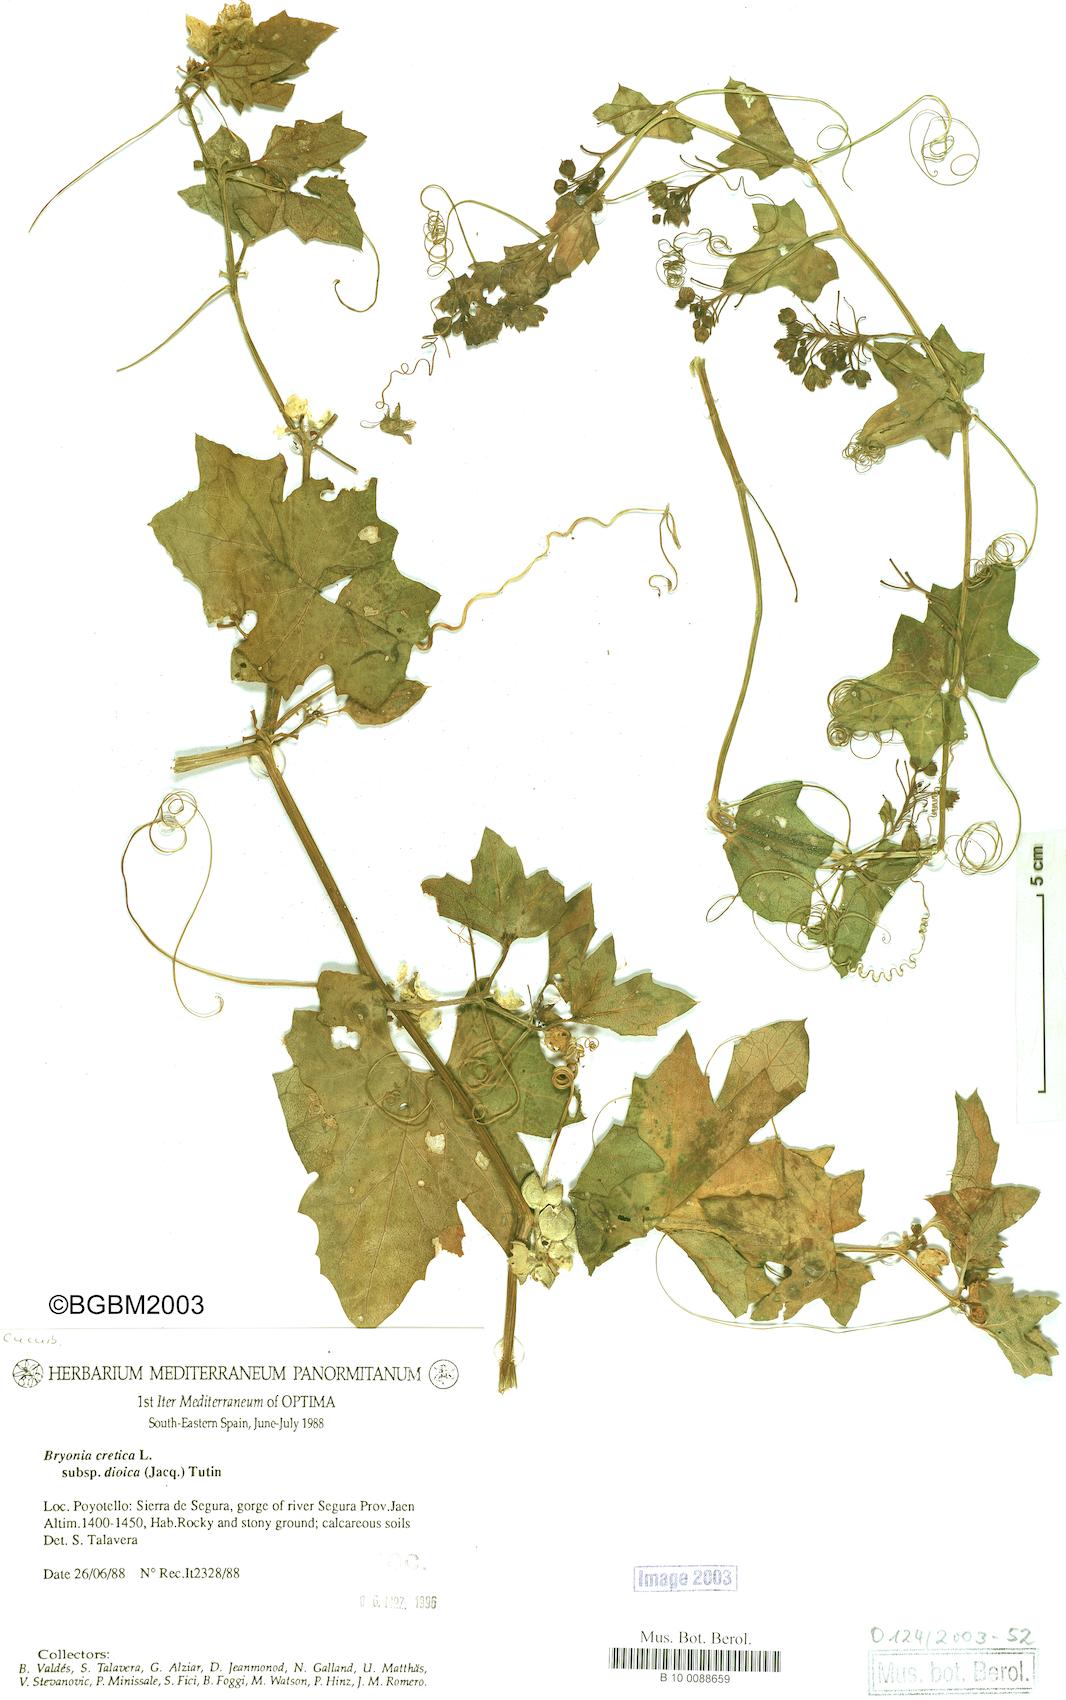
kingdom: Plantae
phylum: Tracheophyta
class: Magnoliopsida
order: Cucurbitales
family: Cucurbitaceae
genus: Bryonia
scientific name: Bryonia dioica
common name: White bryony
